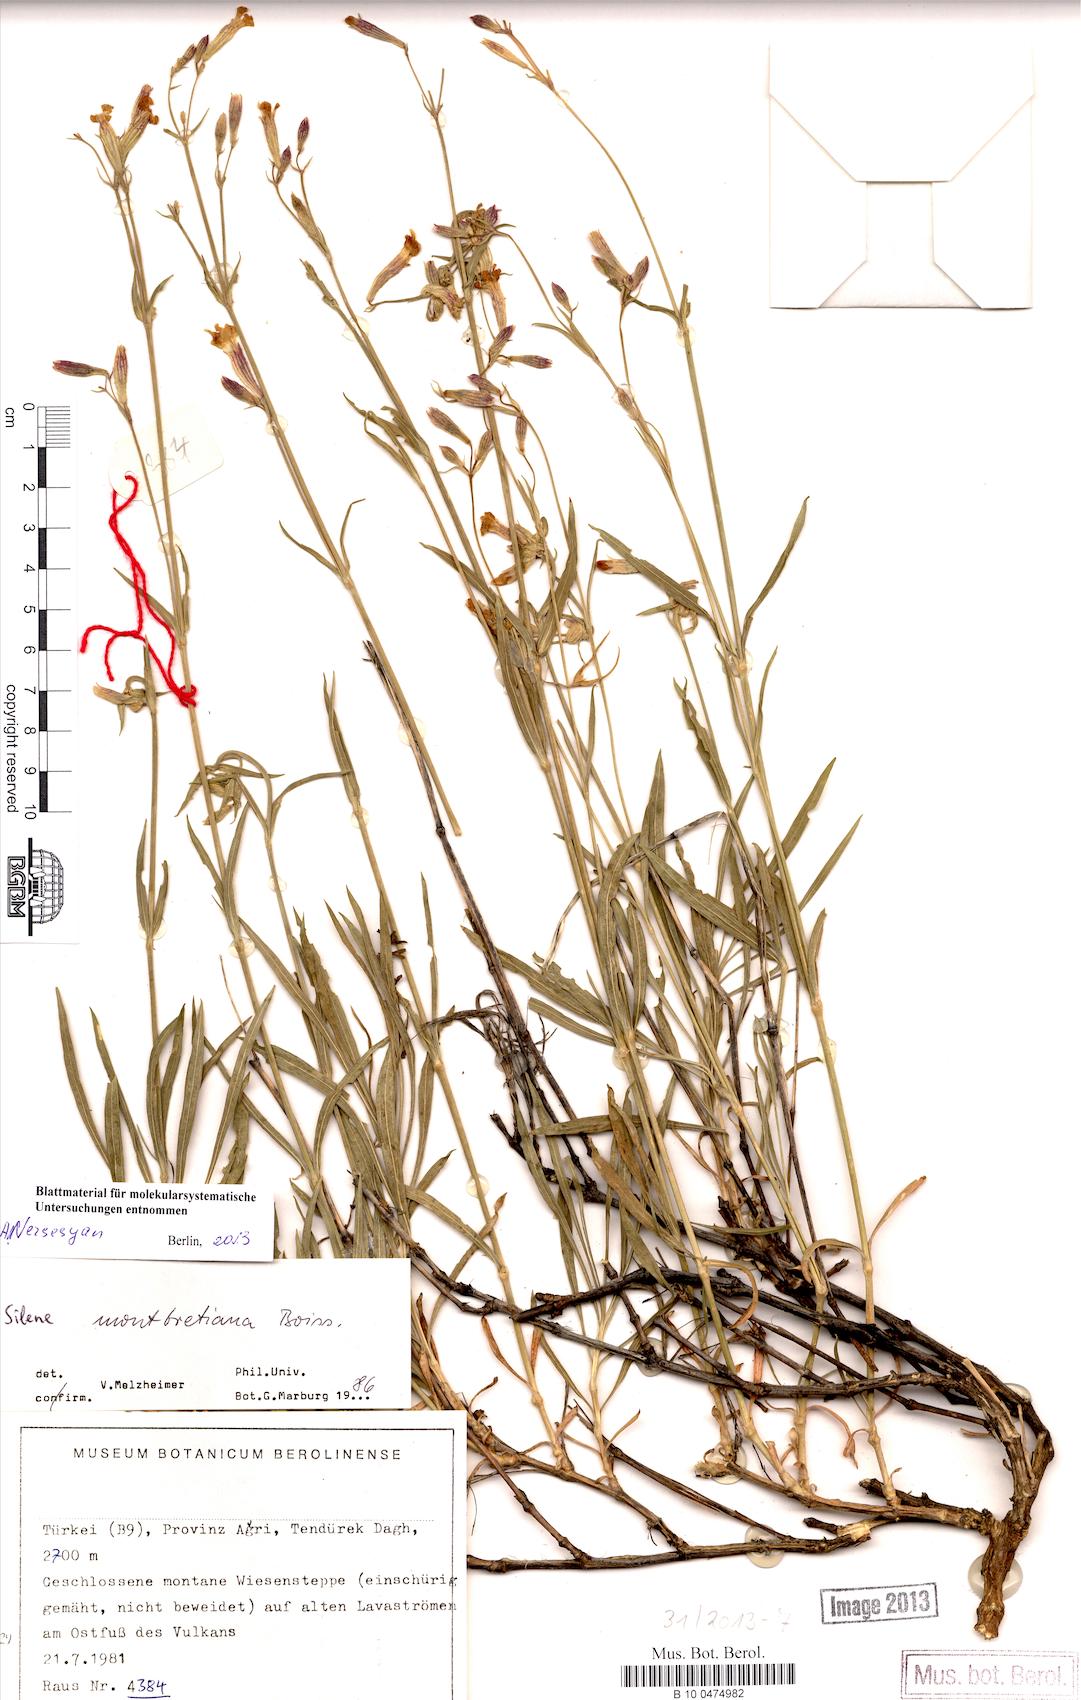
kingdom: Plantae
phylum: Tracheophyta
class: Magnoliopsida
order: Caryophyllales
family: Caryophyllaceae
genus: Silene
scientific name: Silene montbretiana
